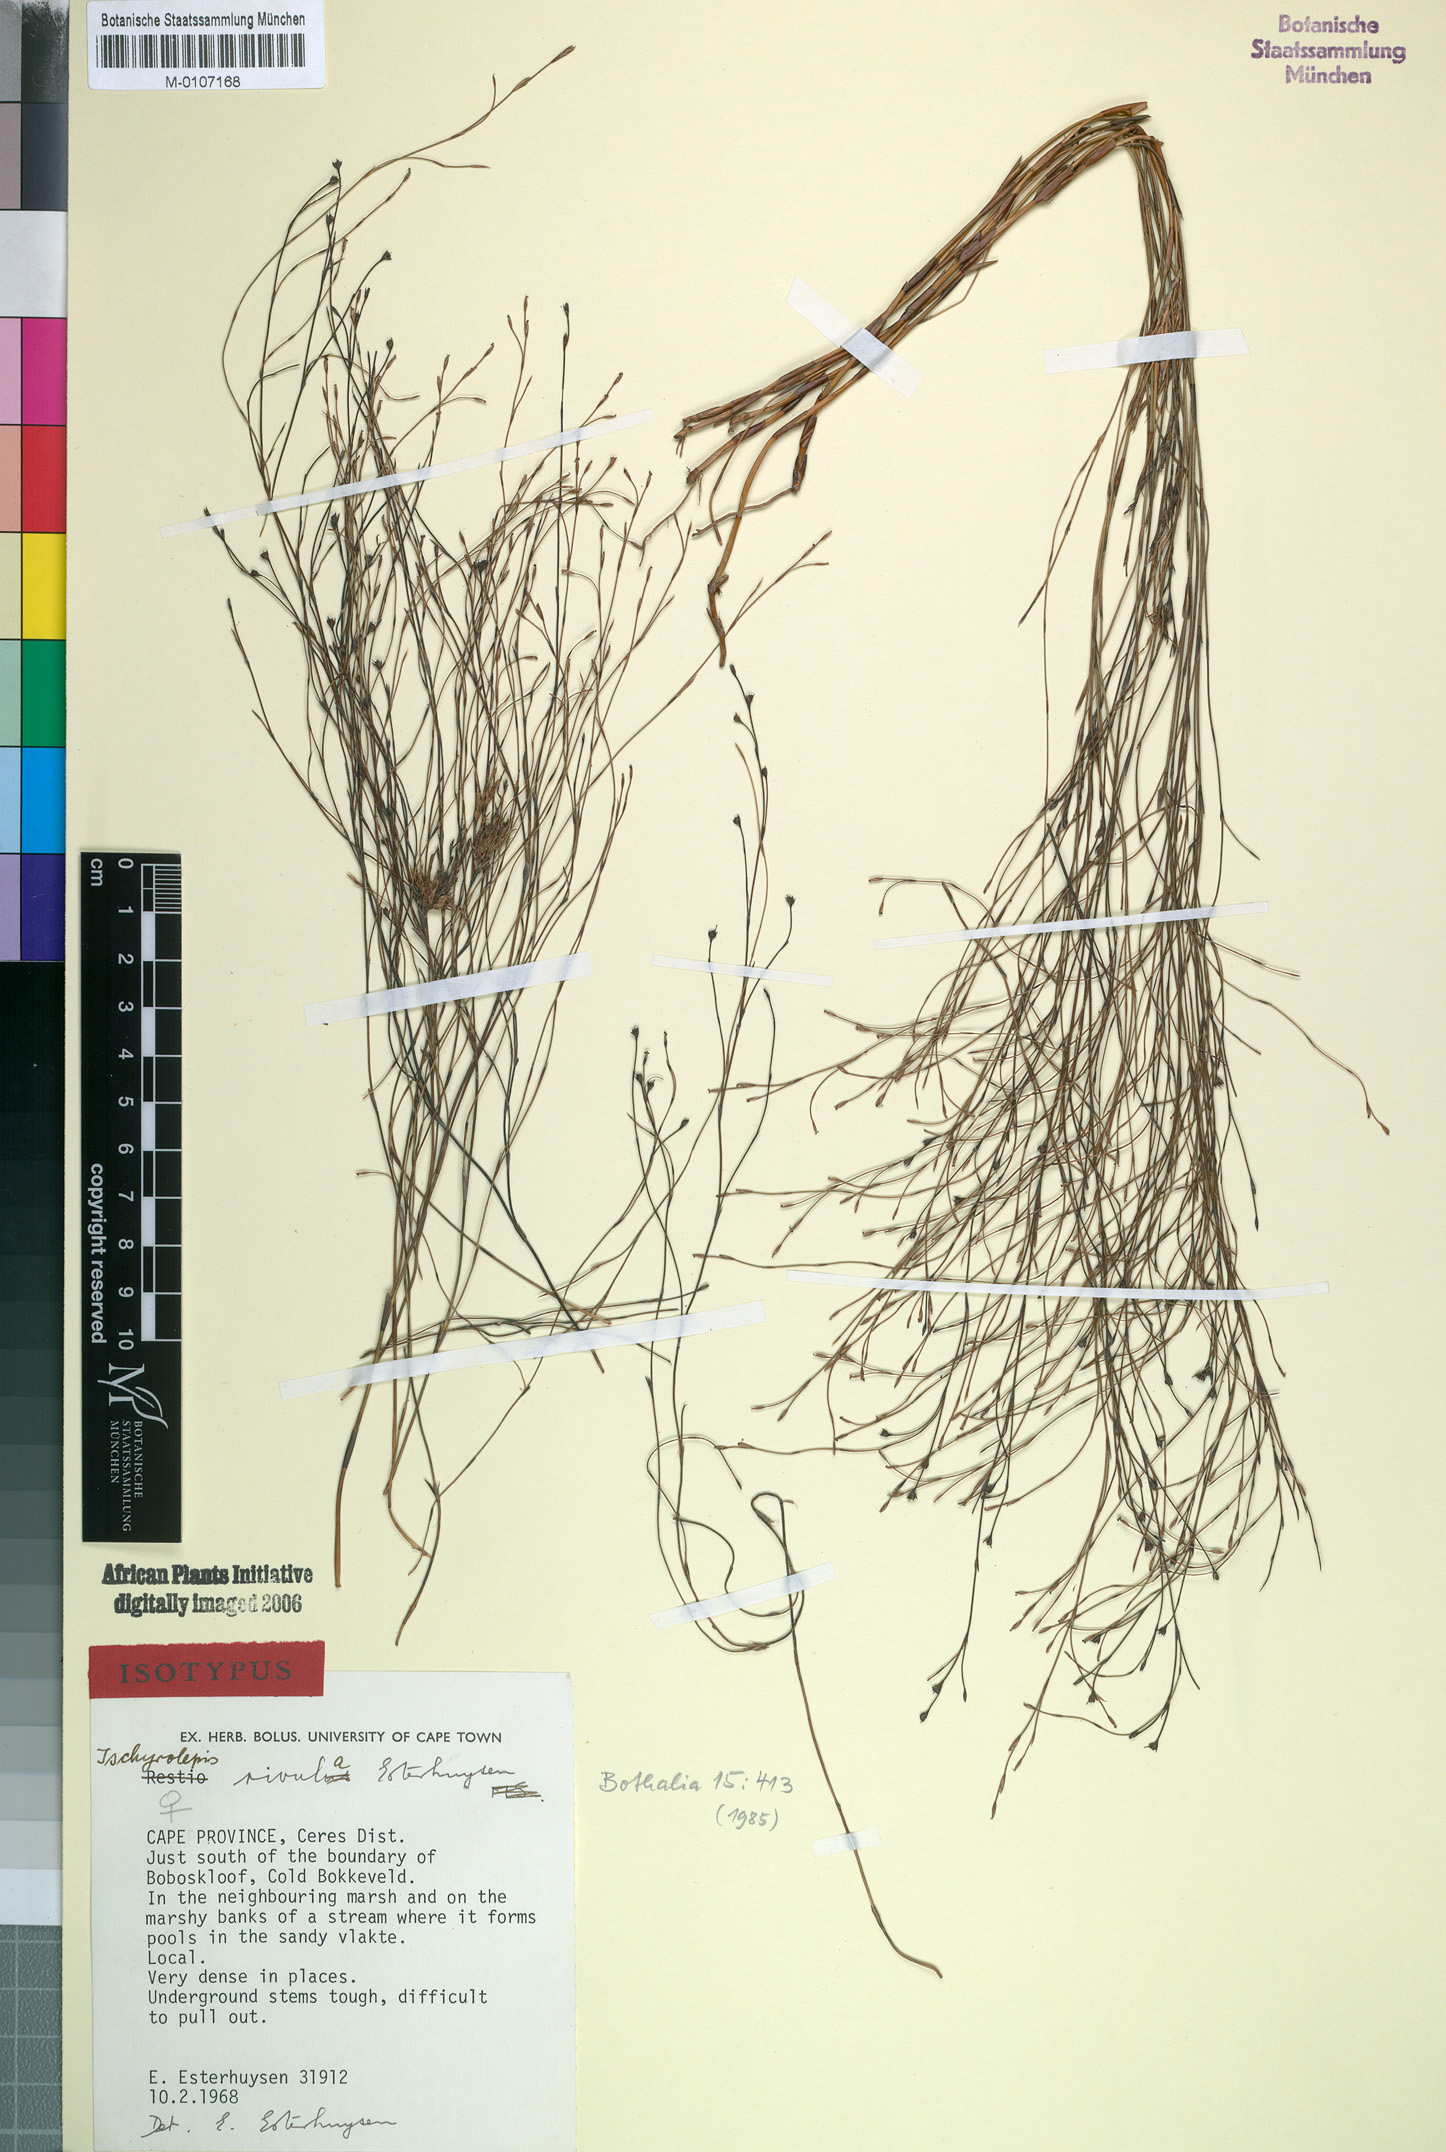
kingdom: Plantae
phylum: Tracheophyta
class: Liliopsida
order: Poales
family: Restionaceae
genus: Restio
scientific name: Restio rivulus
